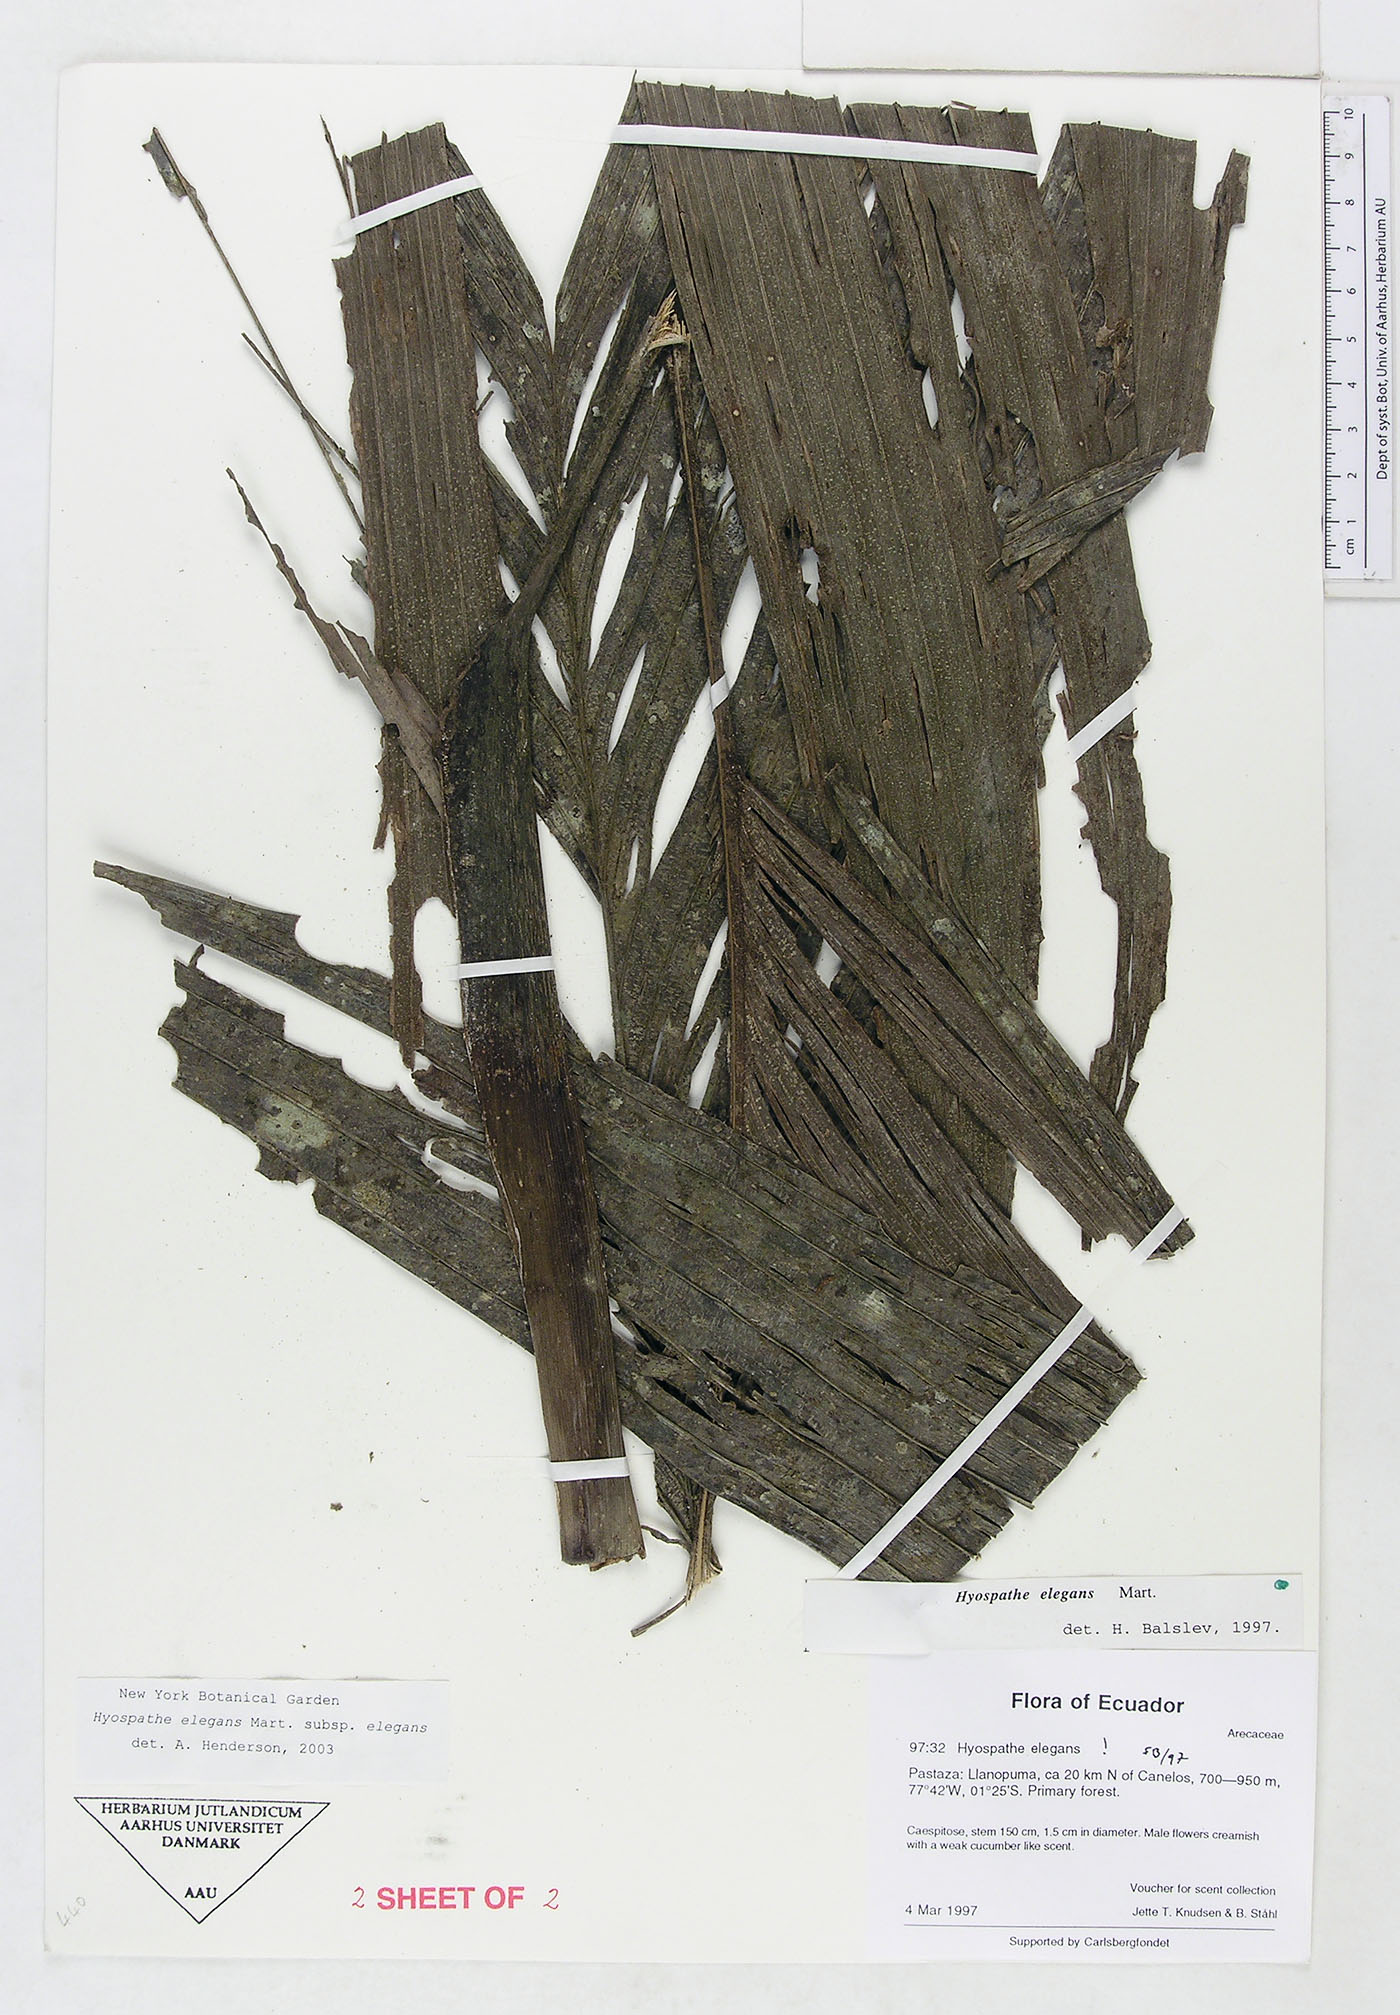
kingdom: Plantae
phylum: Tracheophyta
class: Liliopsida
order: Arecales
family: Arecaceae
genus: Hyospathe
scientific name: Hyospathe elegans
